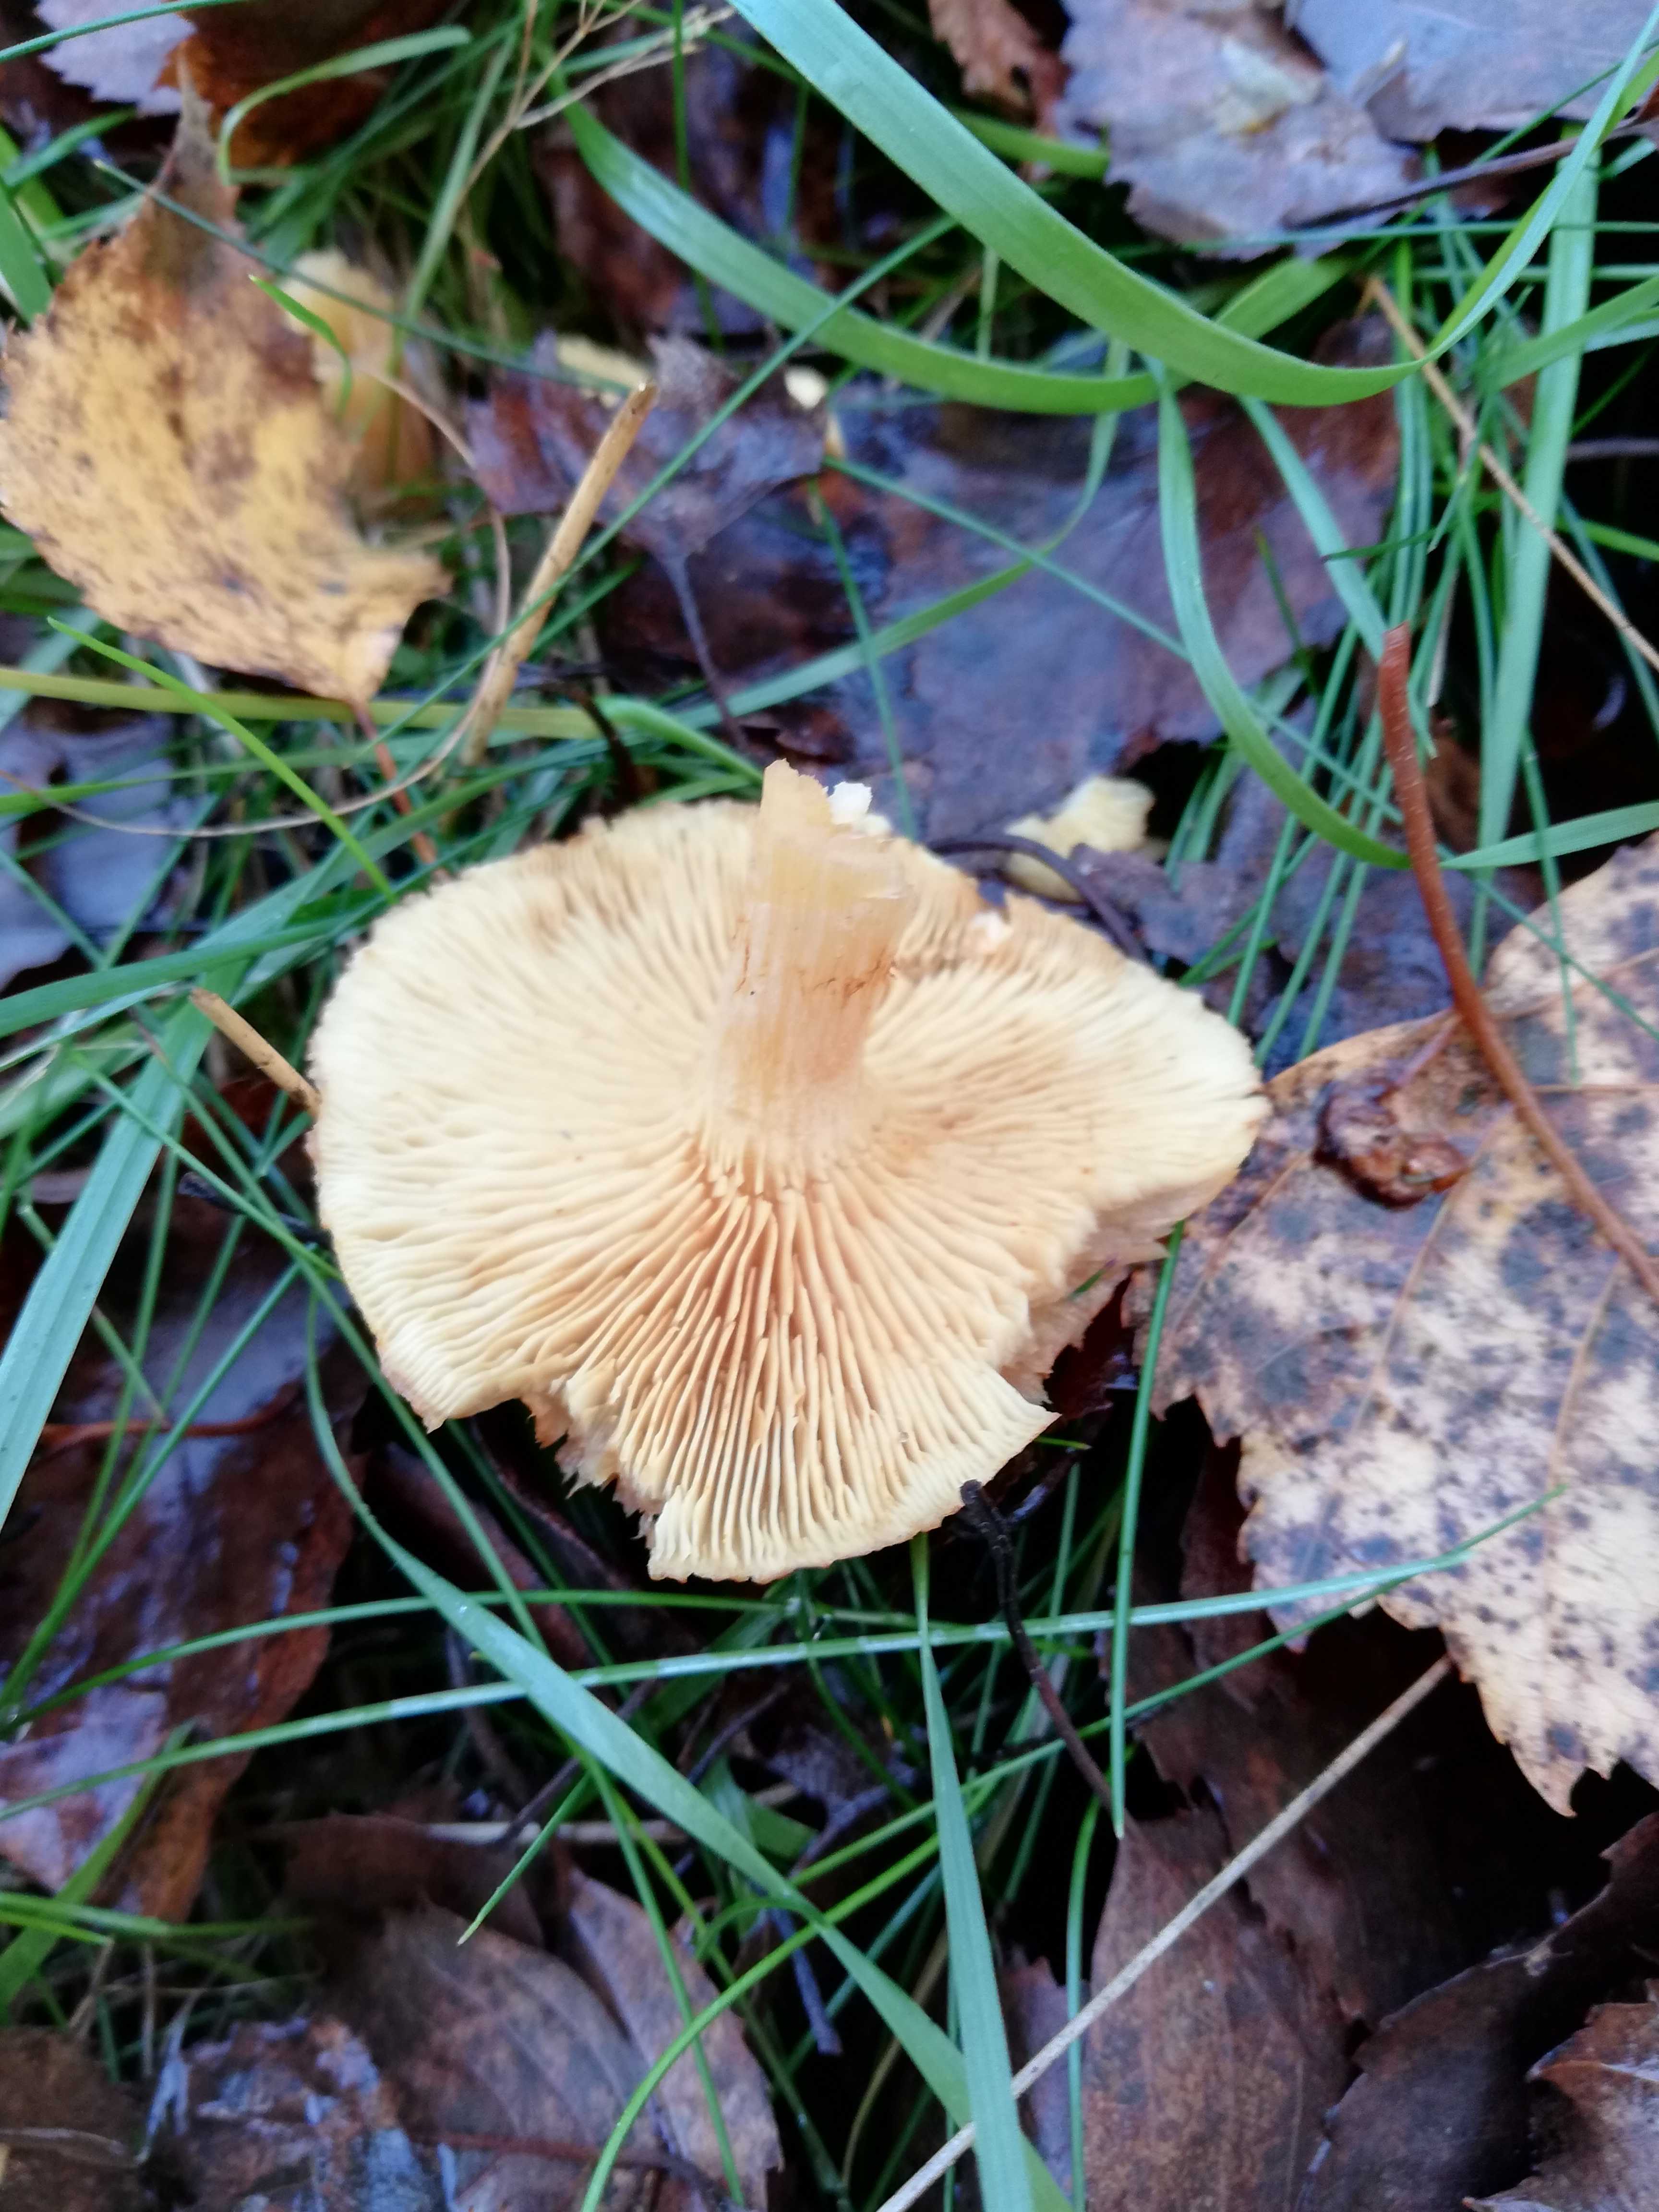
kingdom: Fungi
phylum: Basidiomycota
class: Agaricomycetes
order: Agaricales
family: Tubariaceae
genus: Tubaria
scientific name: Tubaria furfuracea
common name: kliddet fnughat
